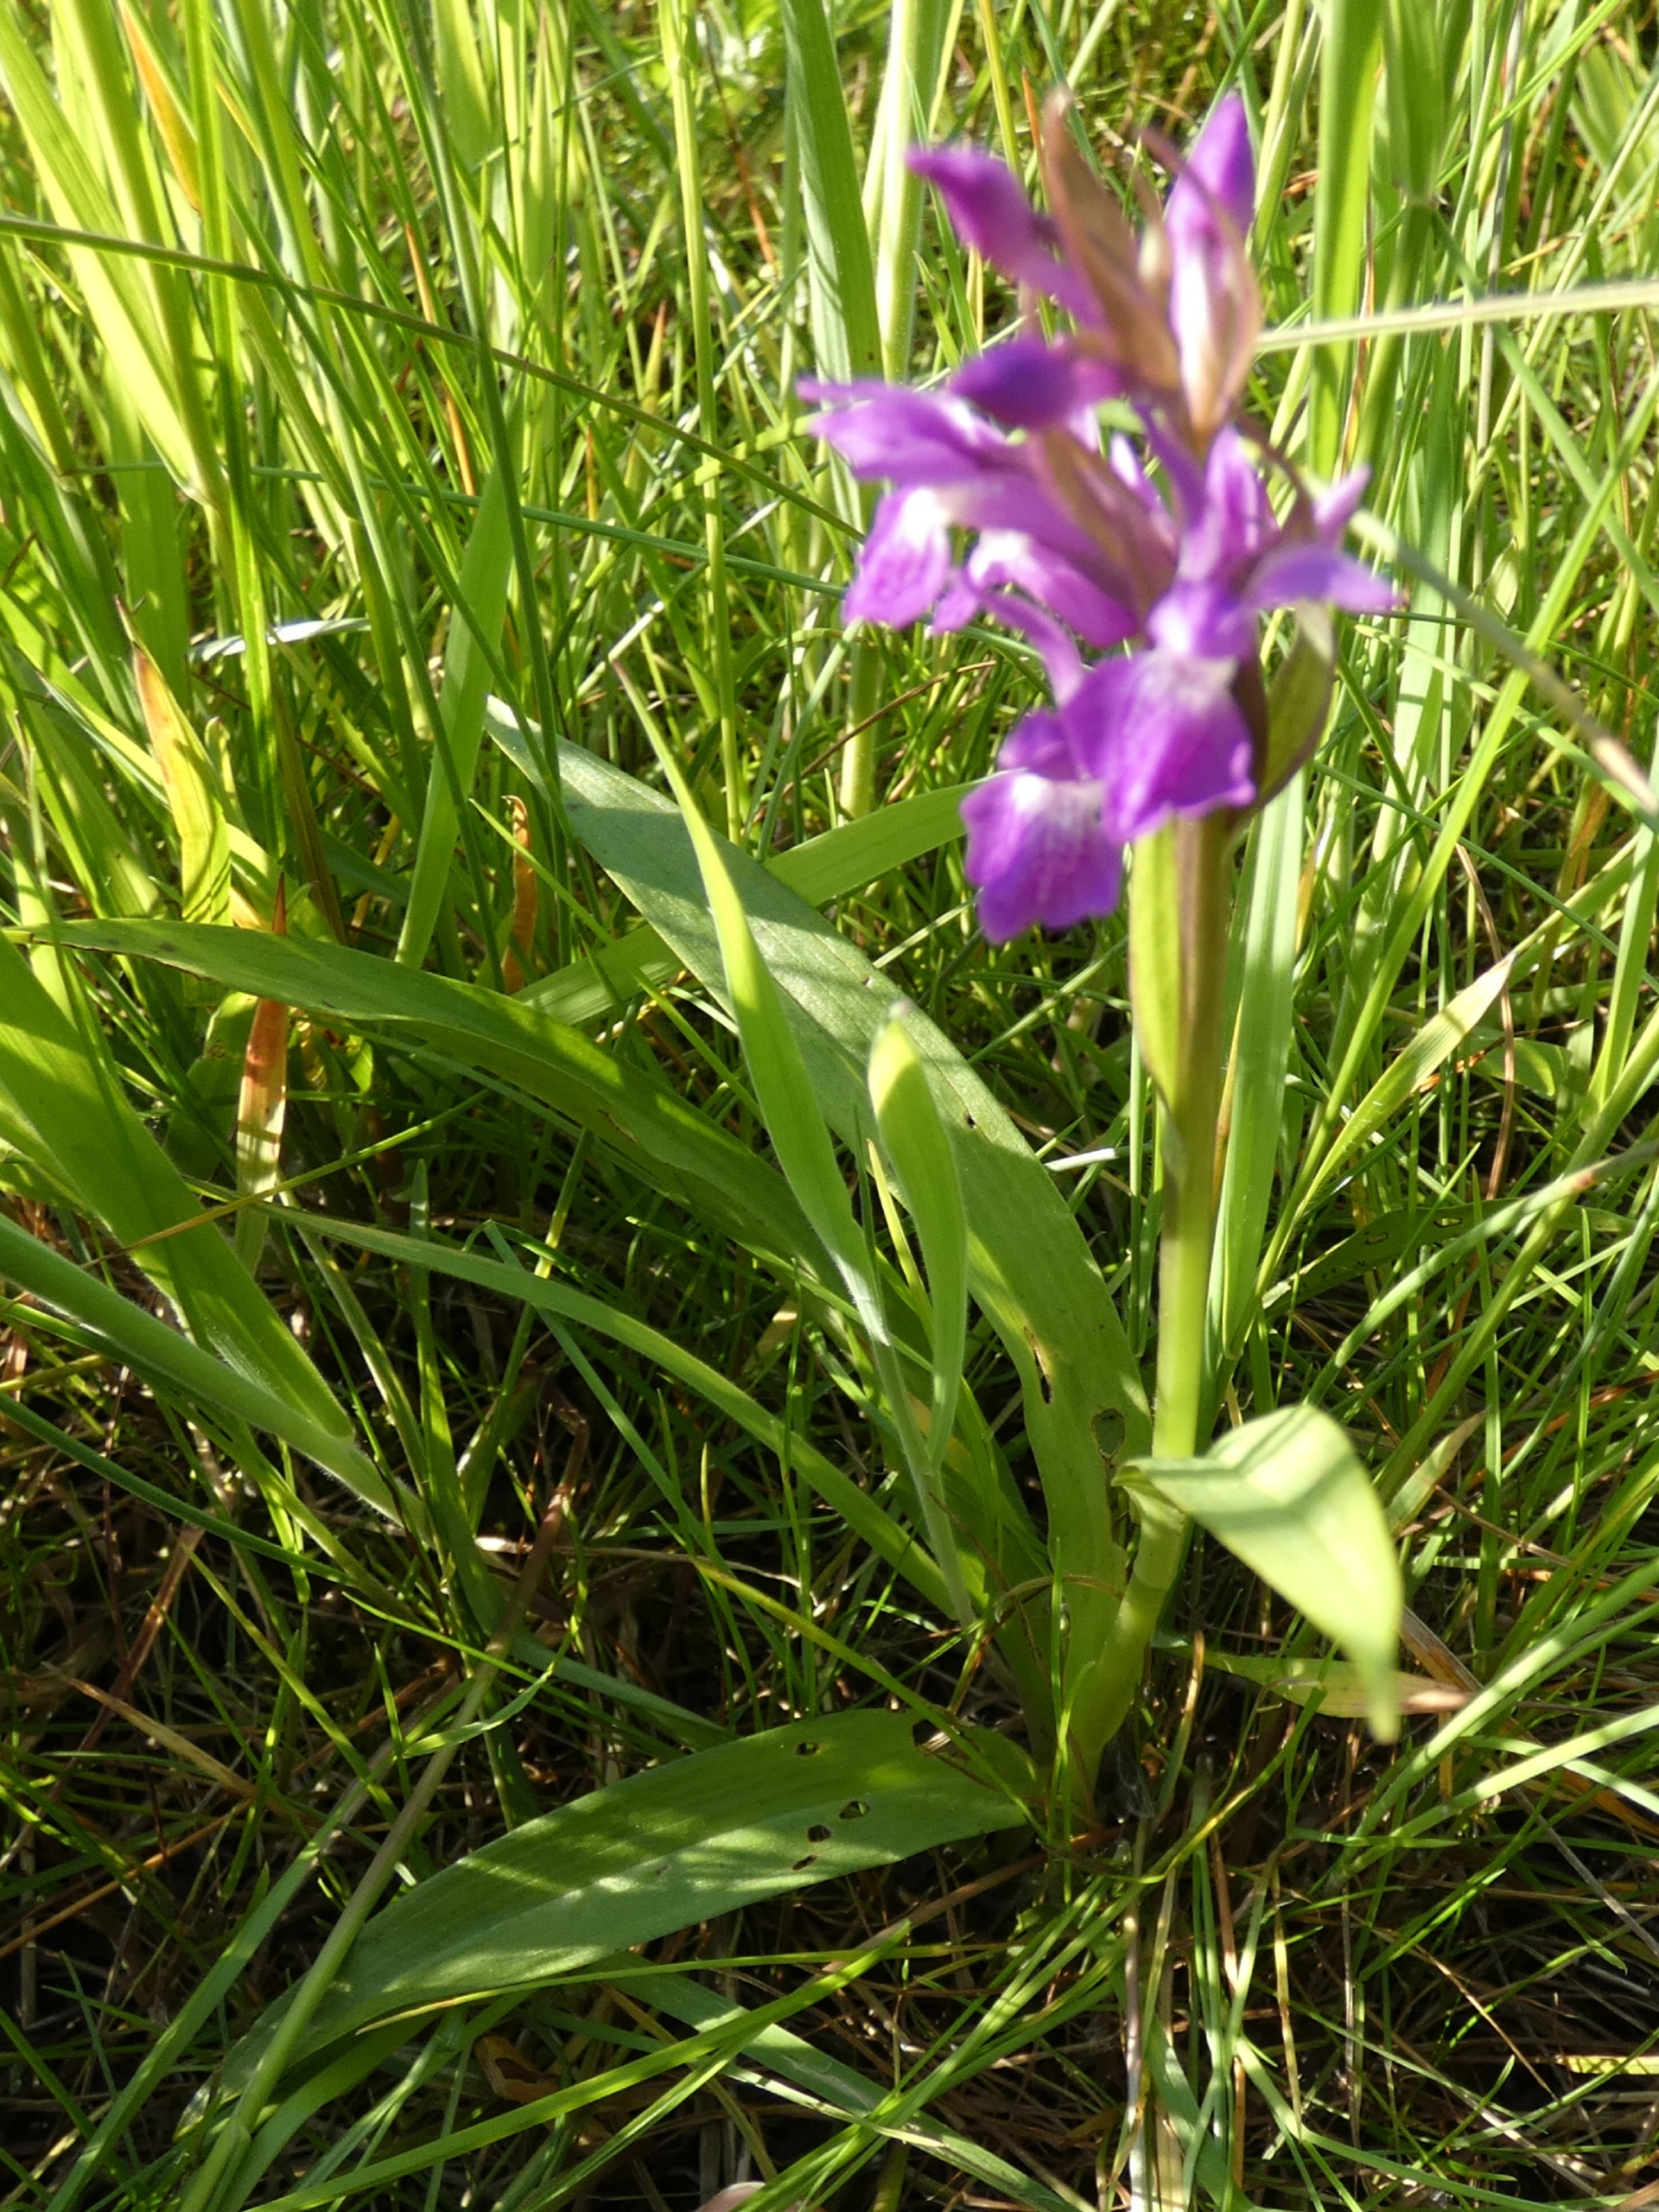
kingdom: Plantae
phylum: Tracheophyta
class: Liliopsida
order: Asparagales
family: Orchidaceae
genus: Dactylorhiza
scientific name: Dactylorhiza majalis
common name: Maj-gøgeurt
